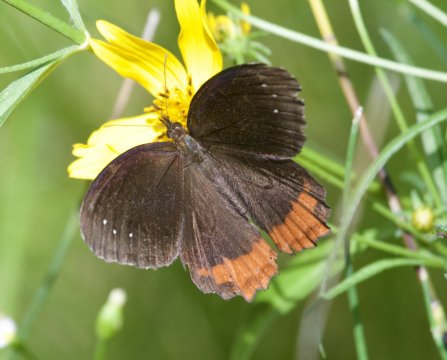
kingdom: Animalia
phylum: Arthropoda
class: Insecta
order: Lepidoptera
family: Nymphalidae
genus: Gyrocheilus
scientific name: Gyrocheilus patrobas
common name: Red-bordered Satyr
